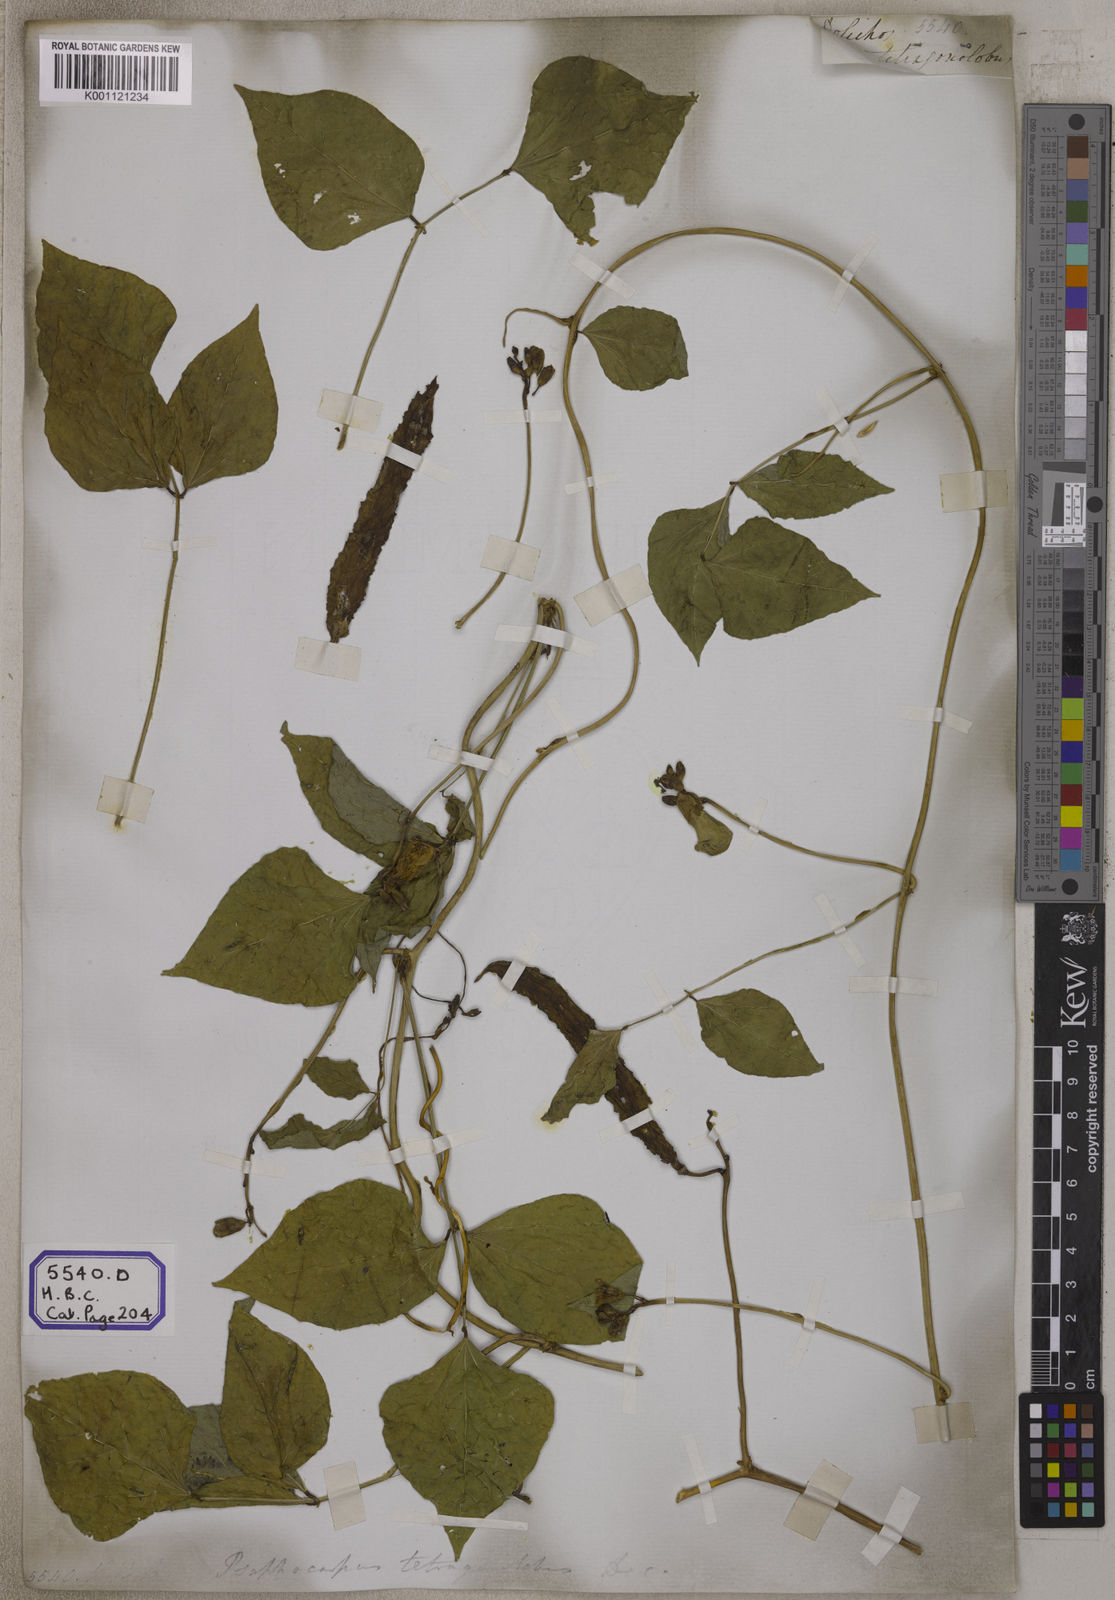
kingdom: Plantae
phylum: Tracheophyta
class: Magnoliopsida
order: Fabales
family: Fabaceae
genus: Psophocarpus
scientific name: Psophocarpus tetragonolobus
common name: Goa-bean
